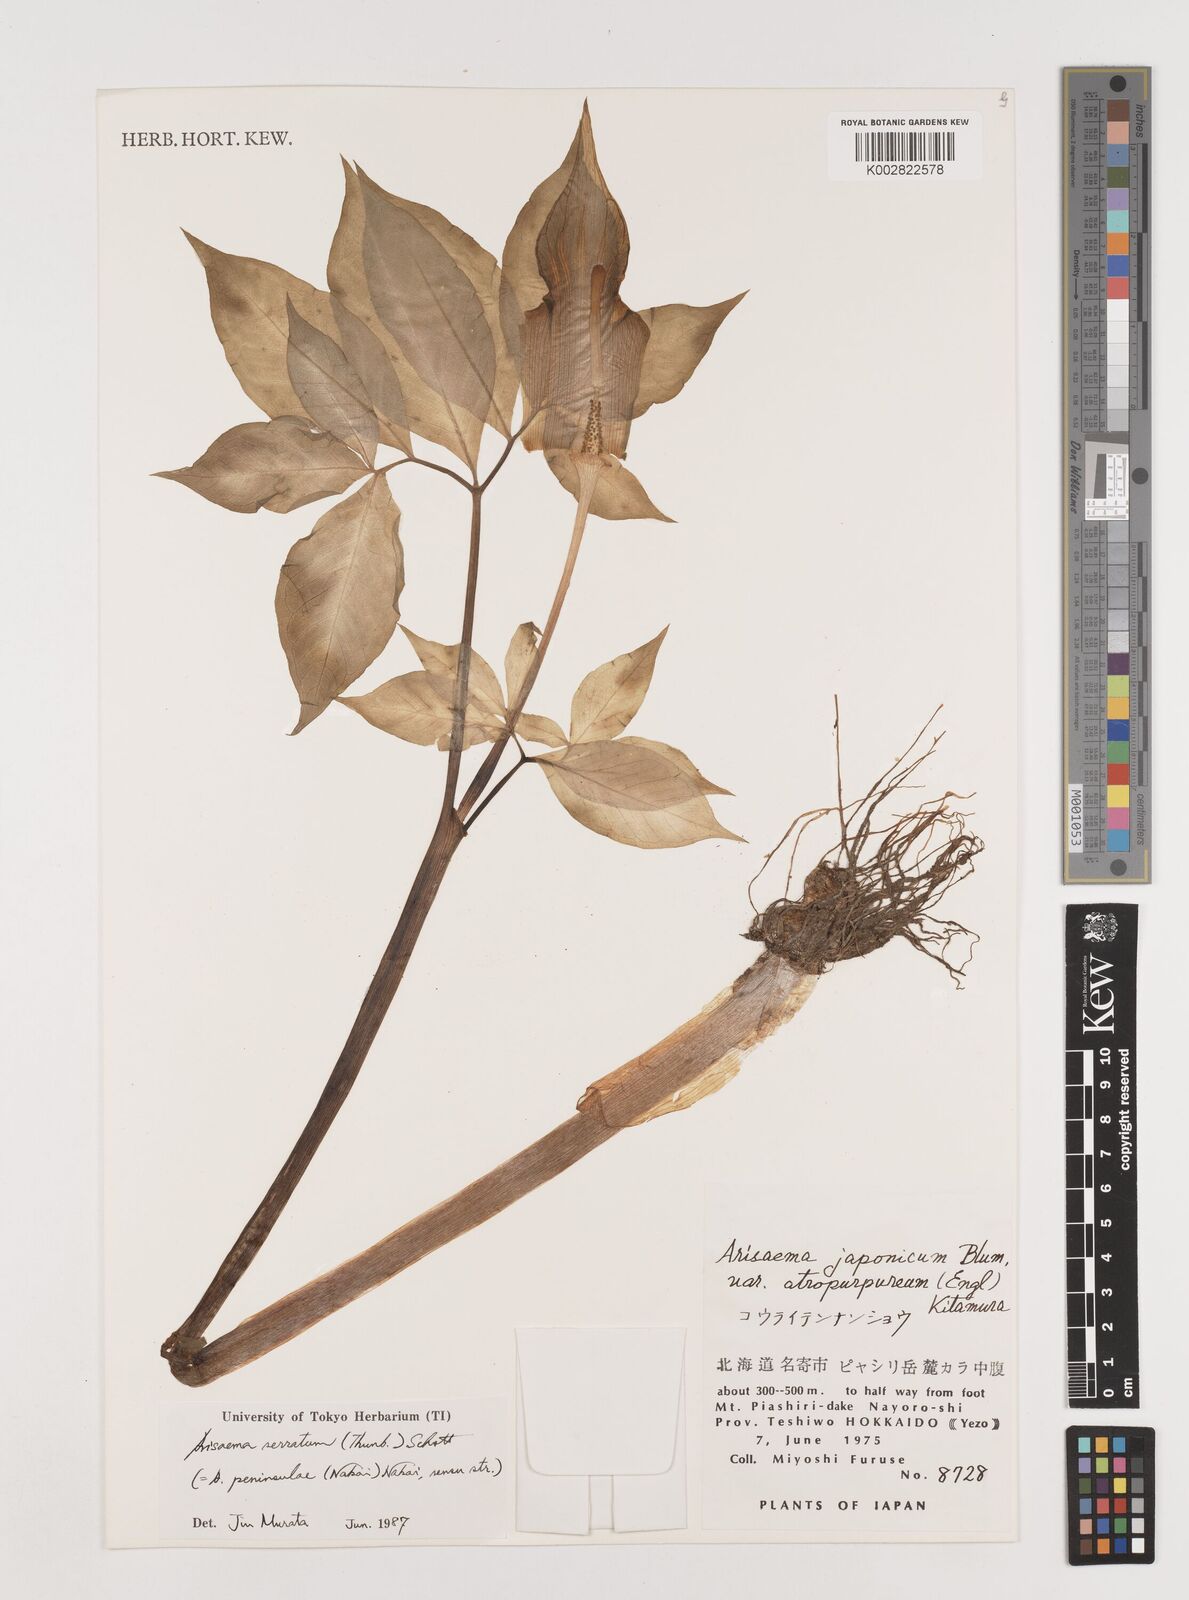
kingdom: Plantae
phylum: Tracheophyta
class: Liliopsida
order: Alismatales
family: Araceae
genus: Arisaema
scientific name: Arisaema serratum
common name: Japanese arisaema
